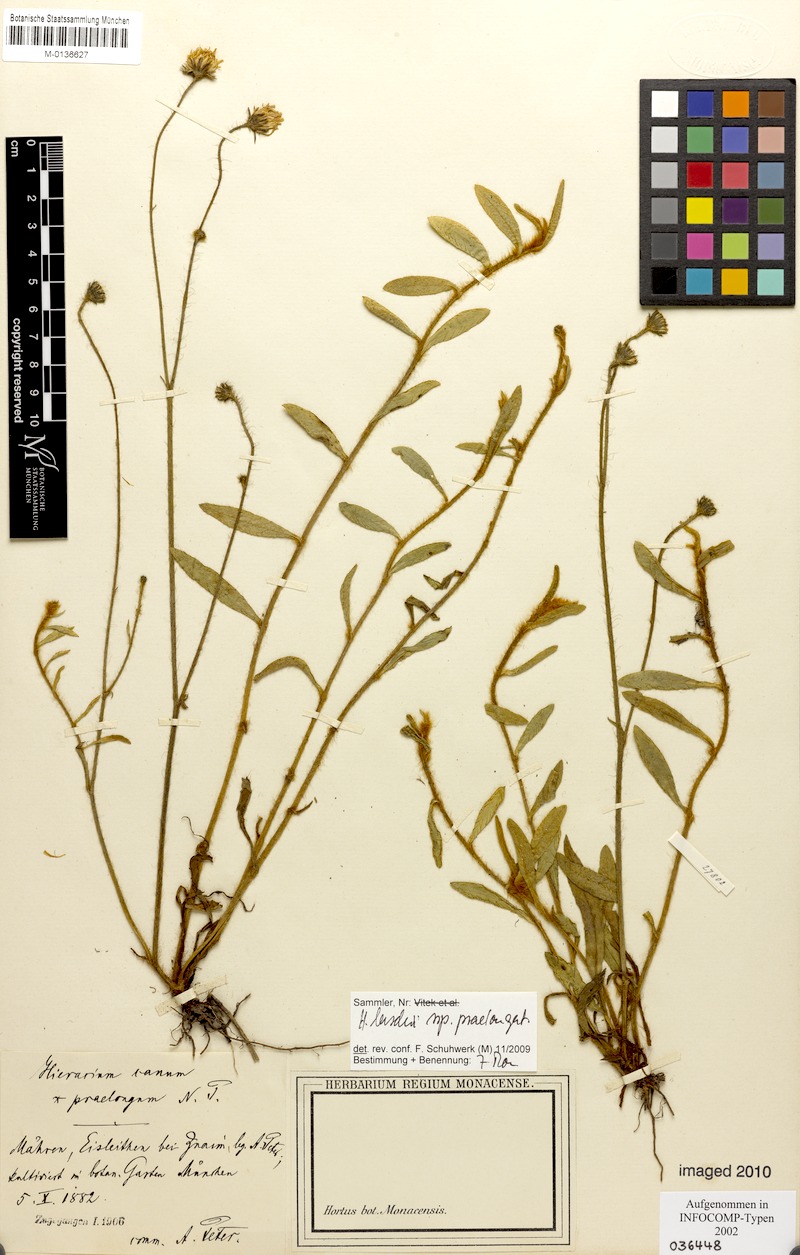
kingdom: Plantae
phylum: Tracheophyta
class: Magnoliopsida
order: Asterales
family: Asteraceae
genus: Pilosella
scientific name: Pilosella acutifolia
